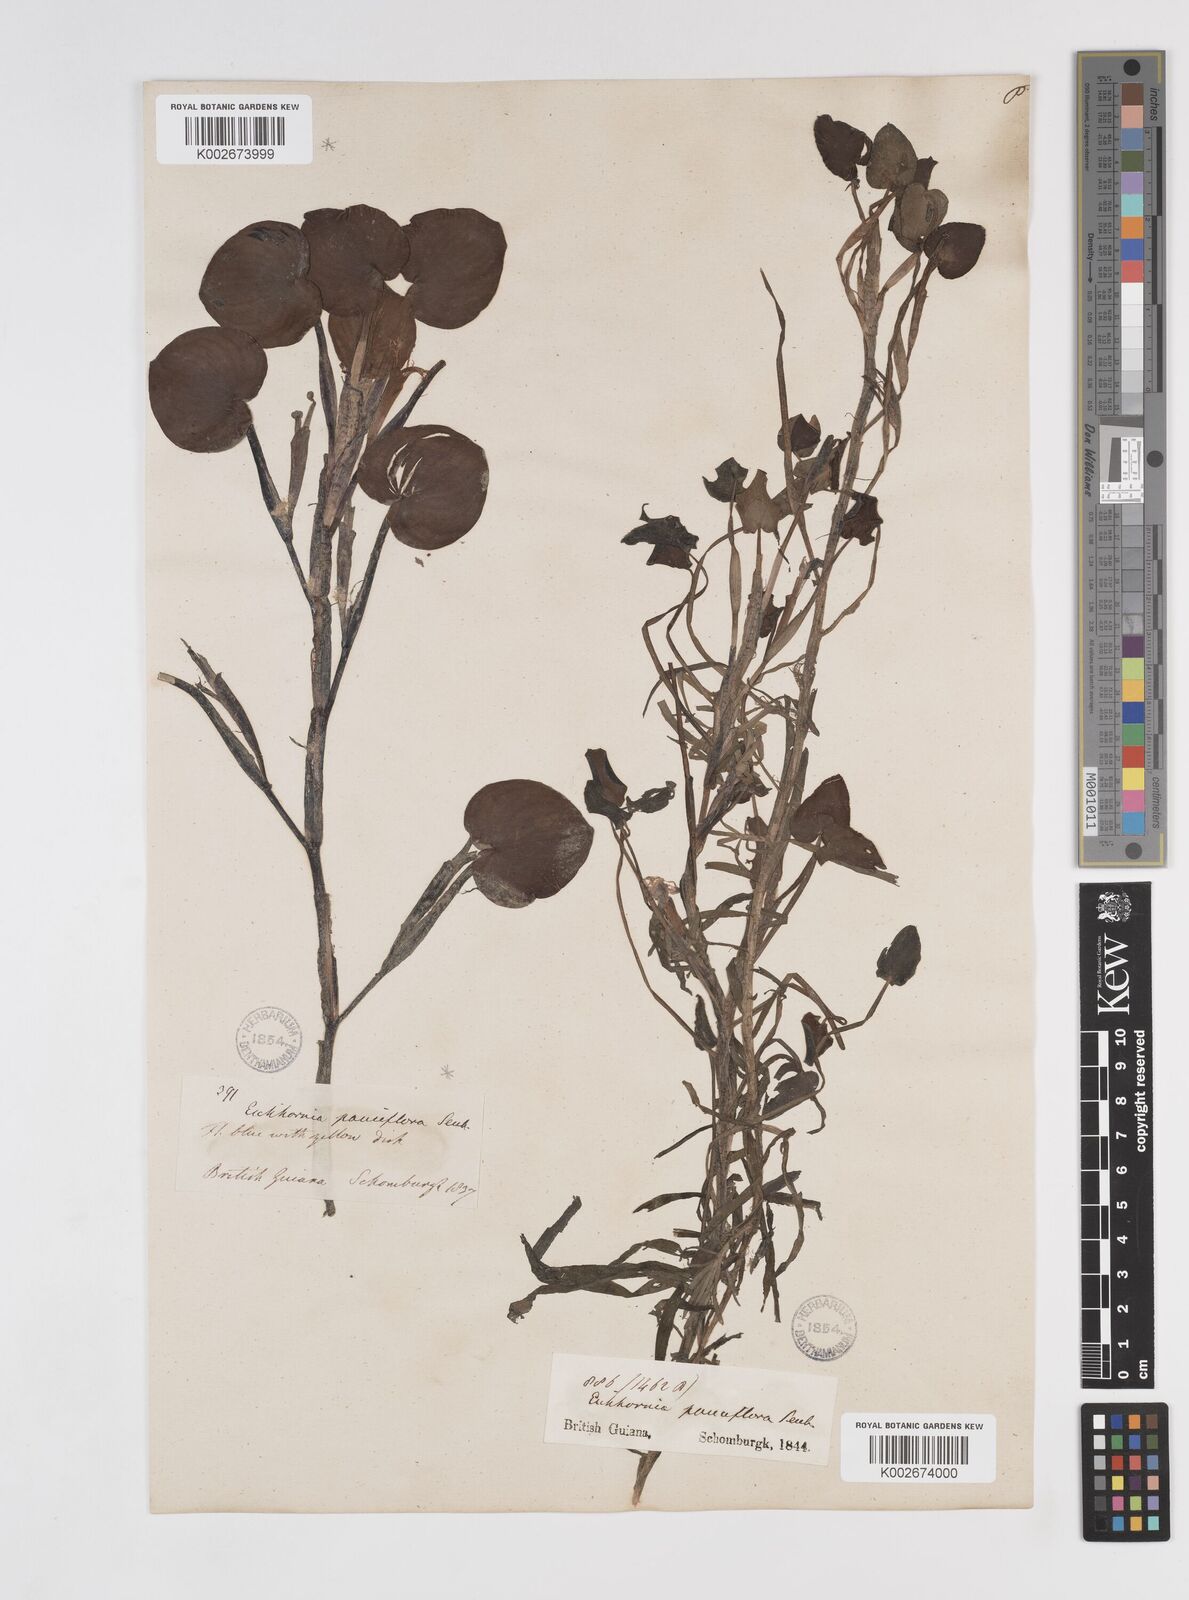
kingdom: Plantae
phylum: Tracheophyta
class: Liliopsida
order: Commelinales
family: Pontederiaceae
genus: Pontederia
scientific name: Pontederia diversifolia
